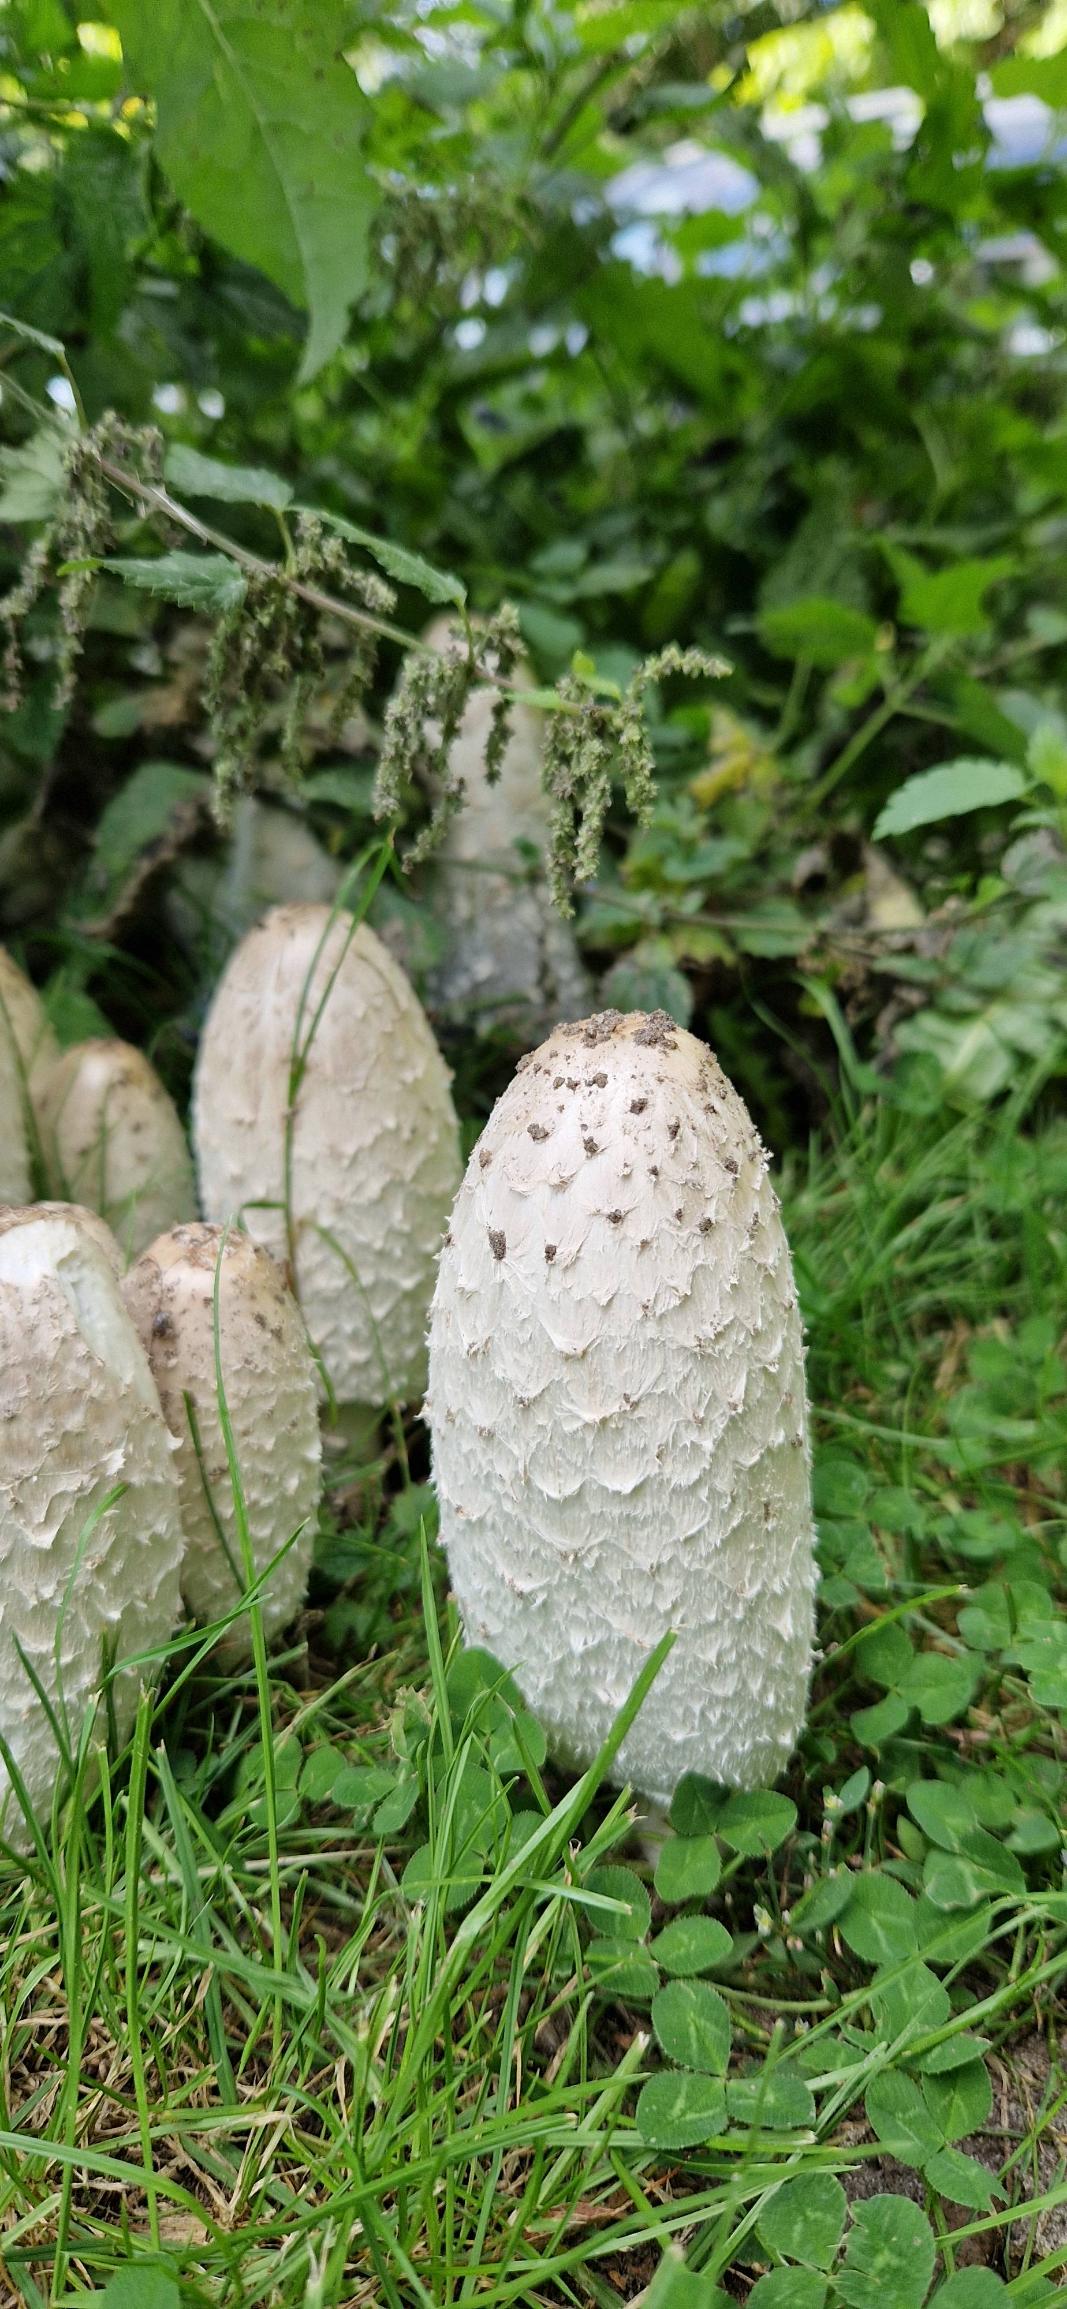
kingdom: Fungi
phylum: Basidiomycota
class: Agaricomycetes
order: Agaricales
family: Agaricaceae
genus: Coprinus
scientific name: Coprinus comatus
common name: Stor parykhat
